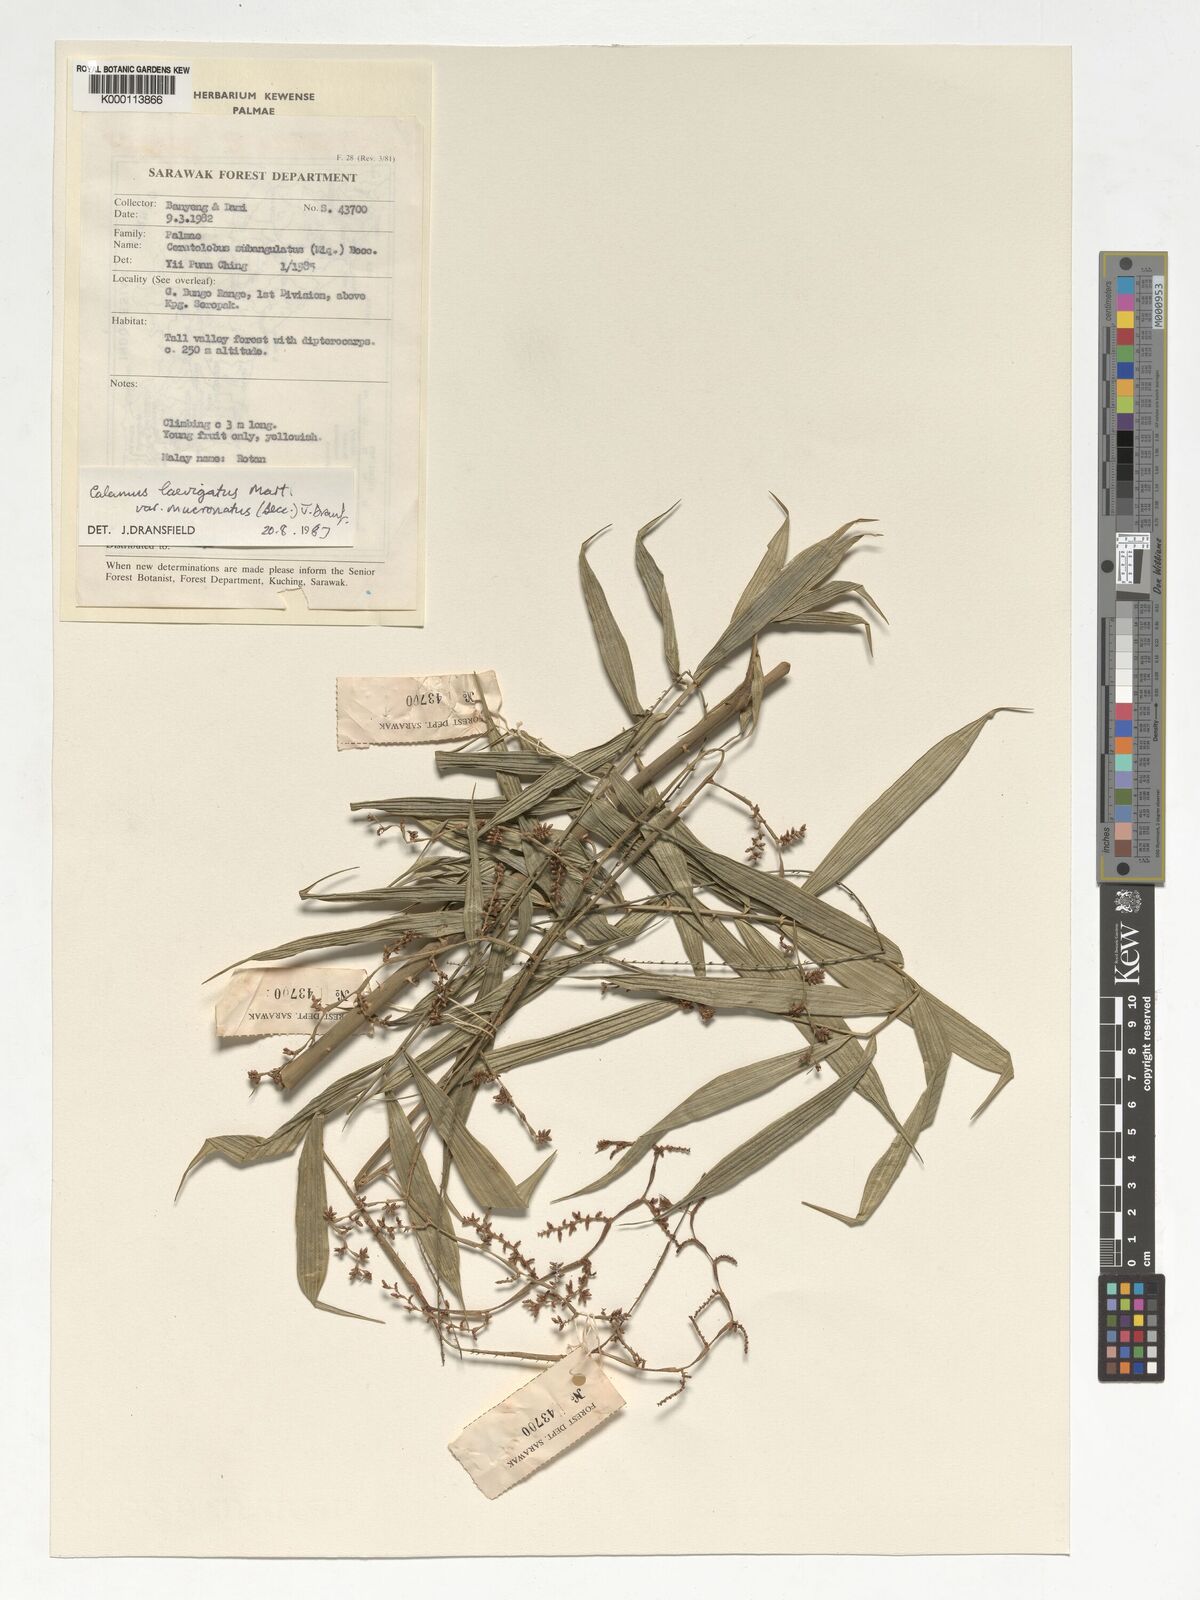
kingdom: Plantae
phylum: Tracheophyta
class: Liliopsida
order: Arecales
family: Arecaceae
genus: Calamus
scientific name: Calamus plicatus
